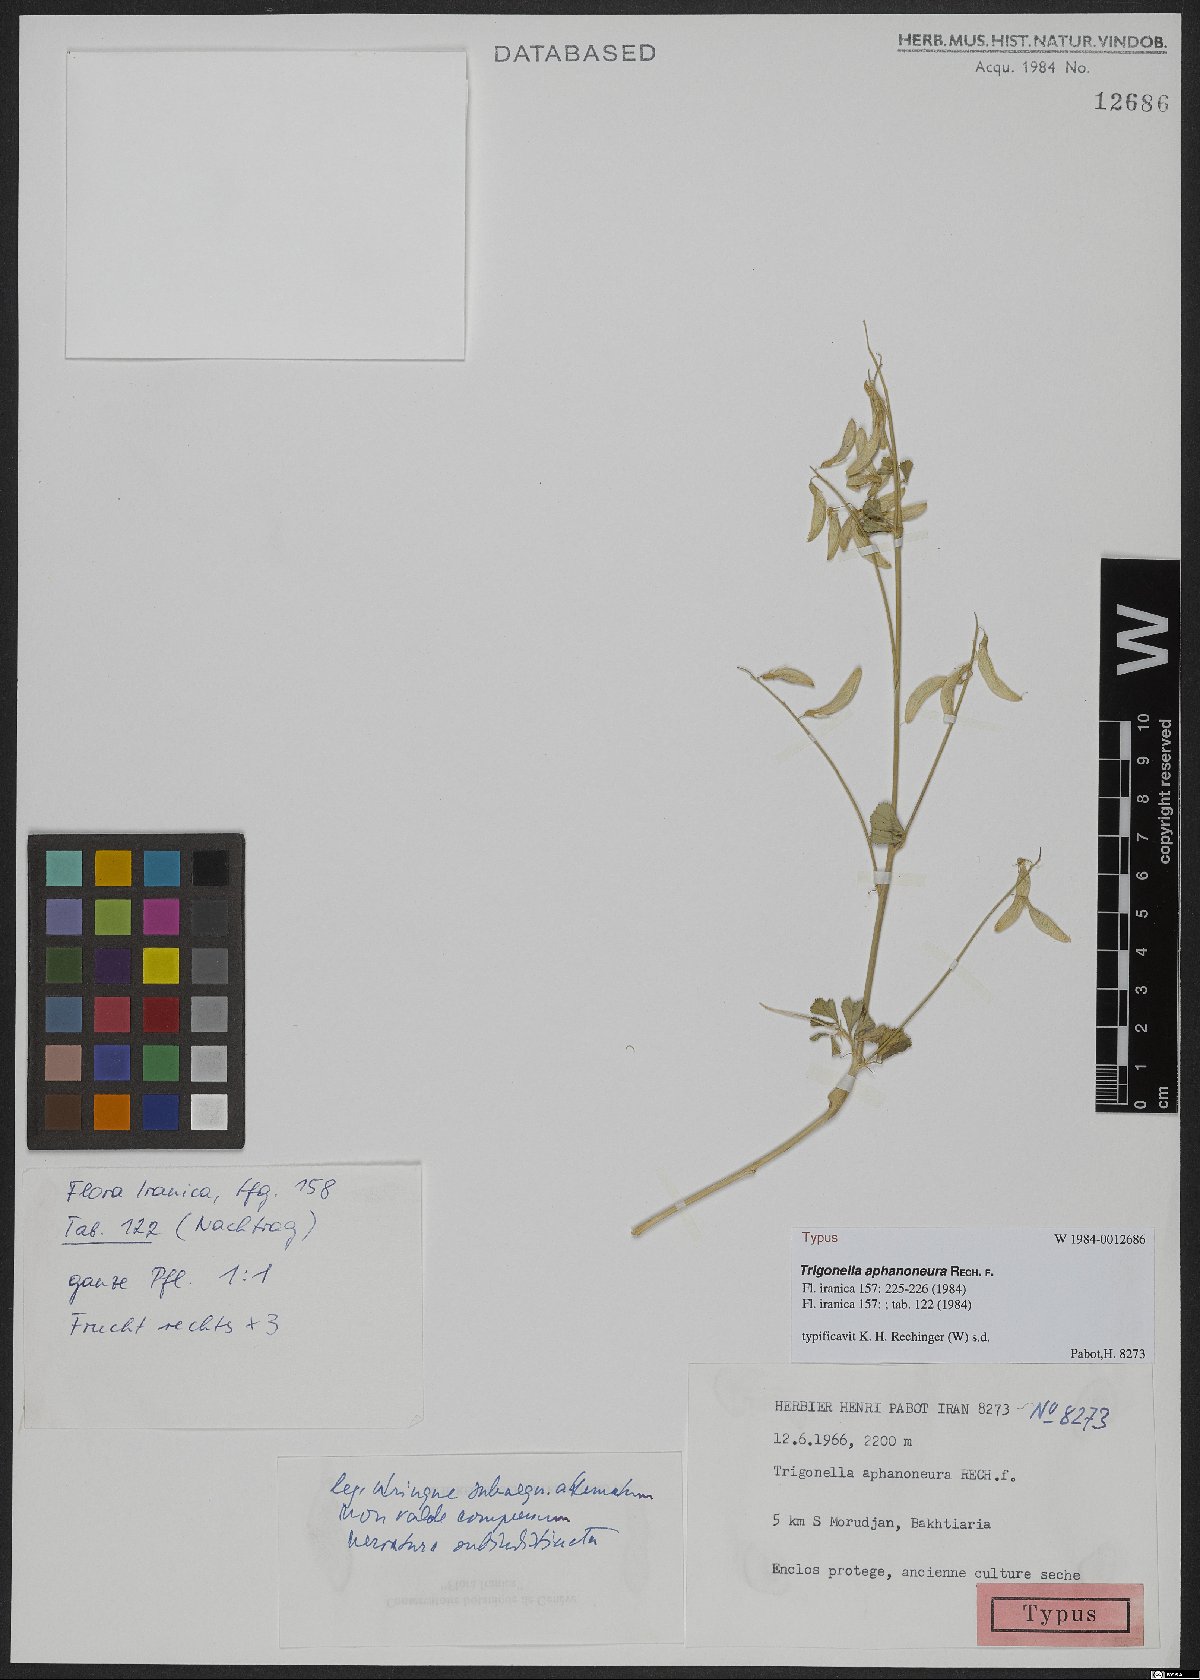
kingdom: Plantae
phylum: Tracheophyta
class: Magnoliopsida
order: Fabales
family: Fabaceae
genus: Trigonella
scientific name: Trigonella aphanoneura
